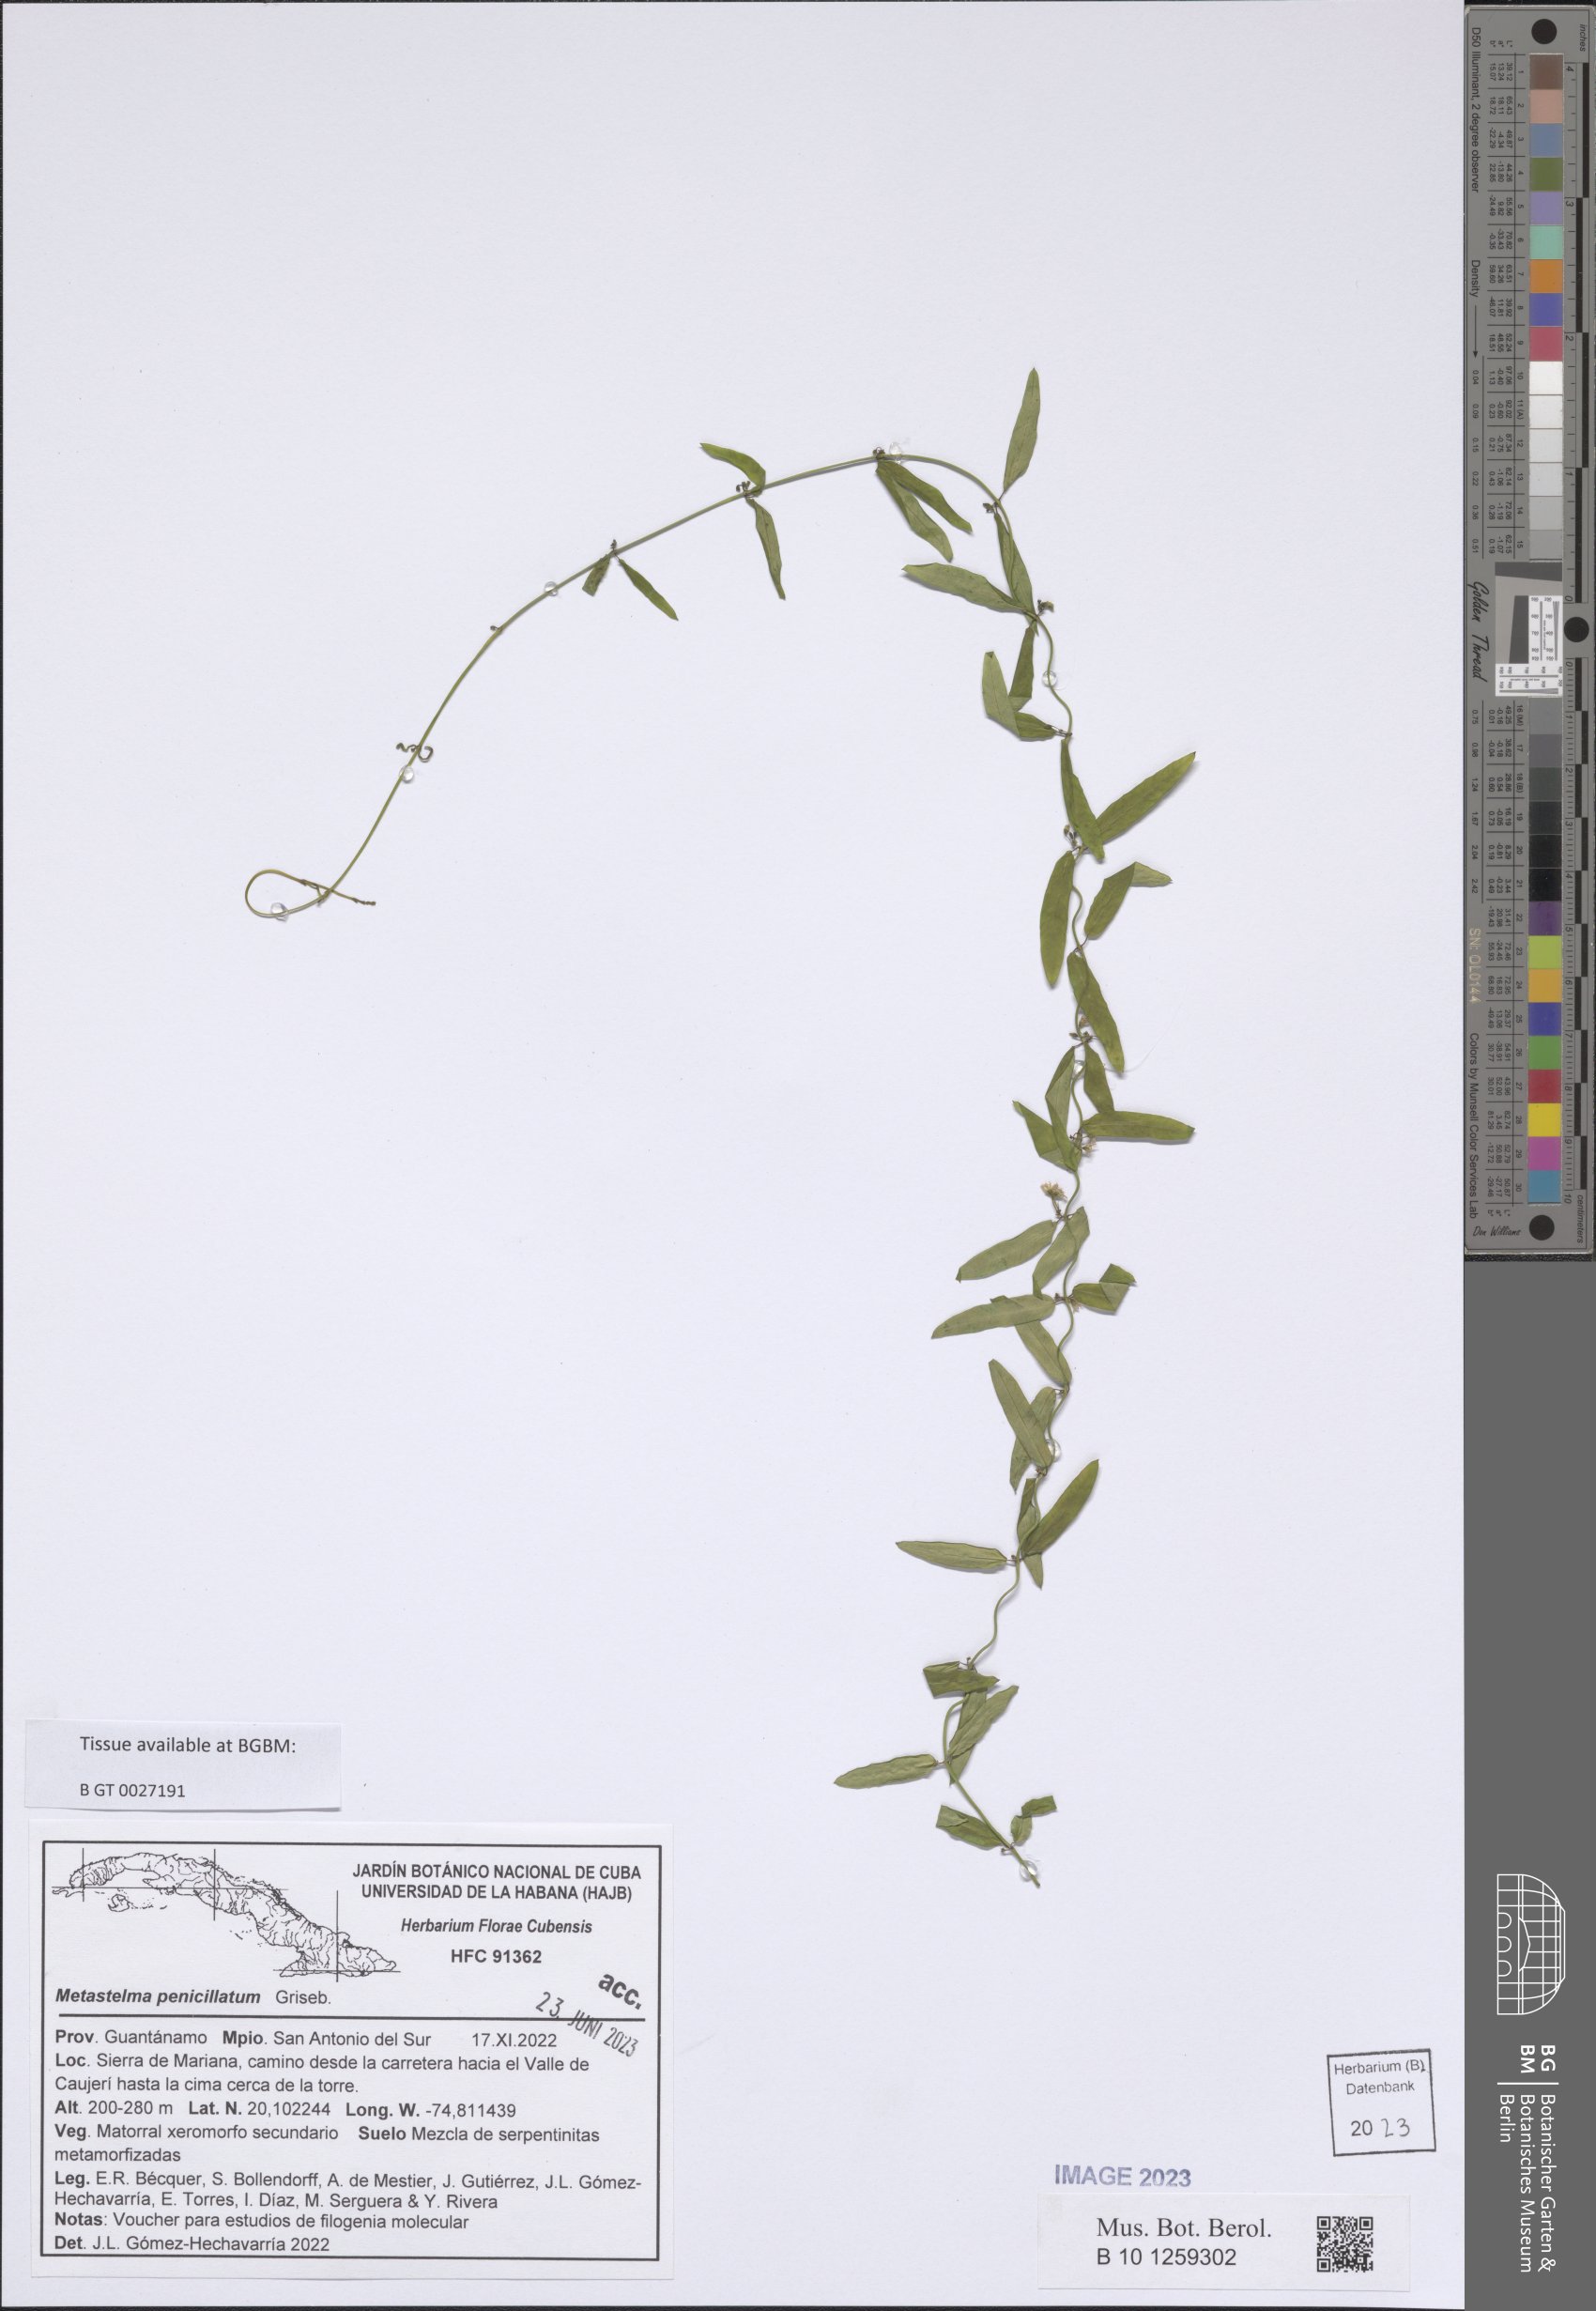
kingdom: Plantae
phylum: Tracheophyta
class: Magnoliopsida
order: Gentianales
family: Apocynaceae
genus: Metastelma
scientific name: Metastelma penicillatum
